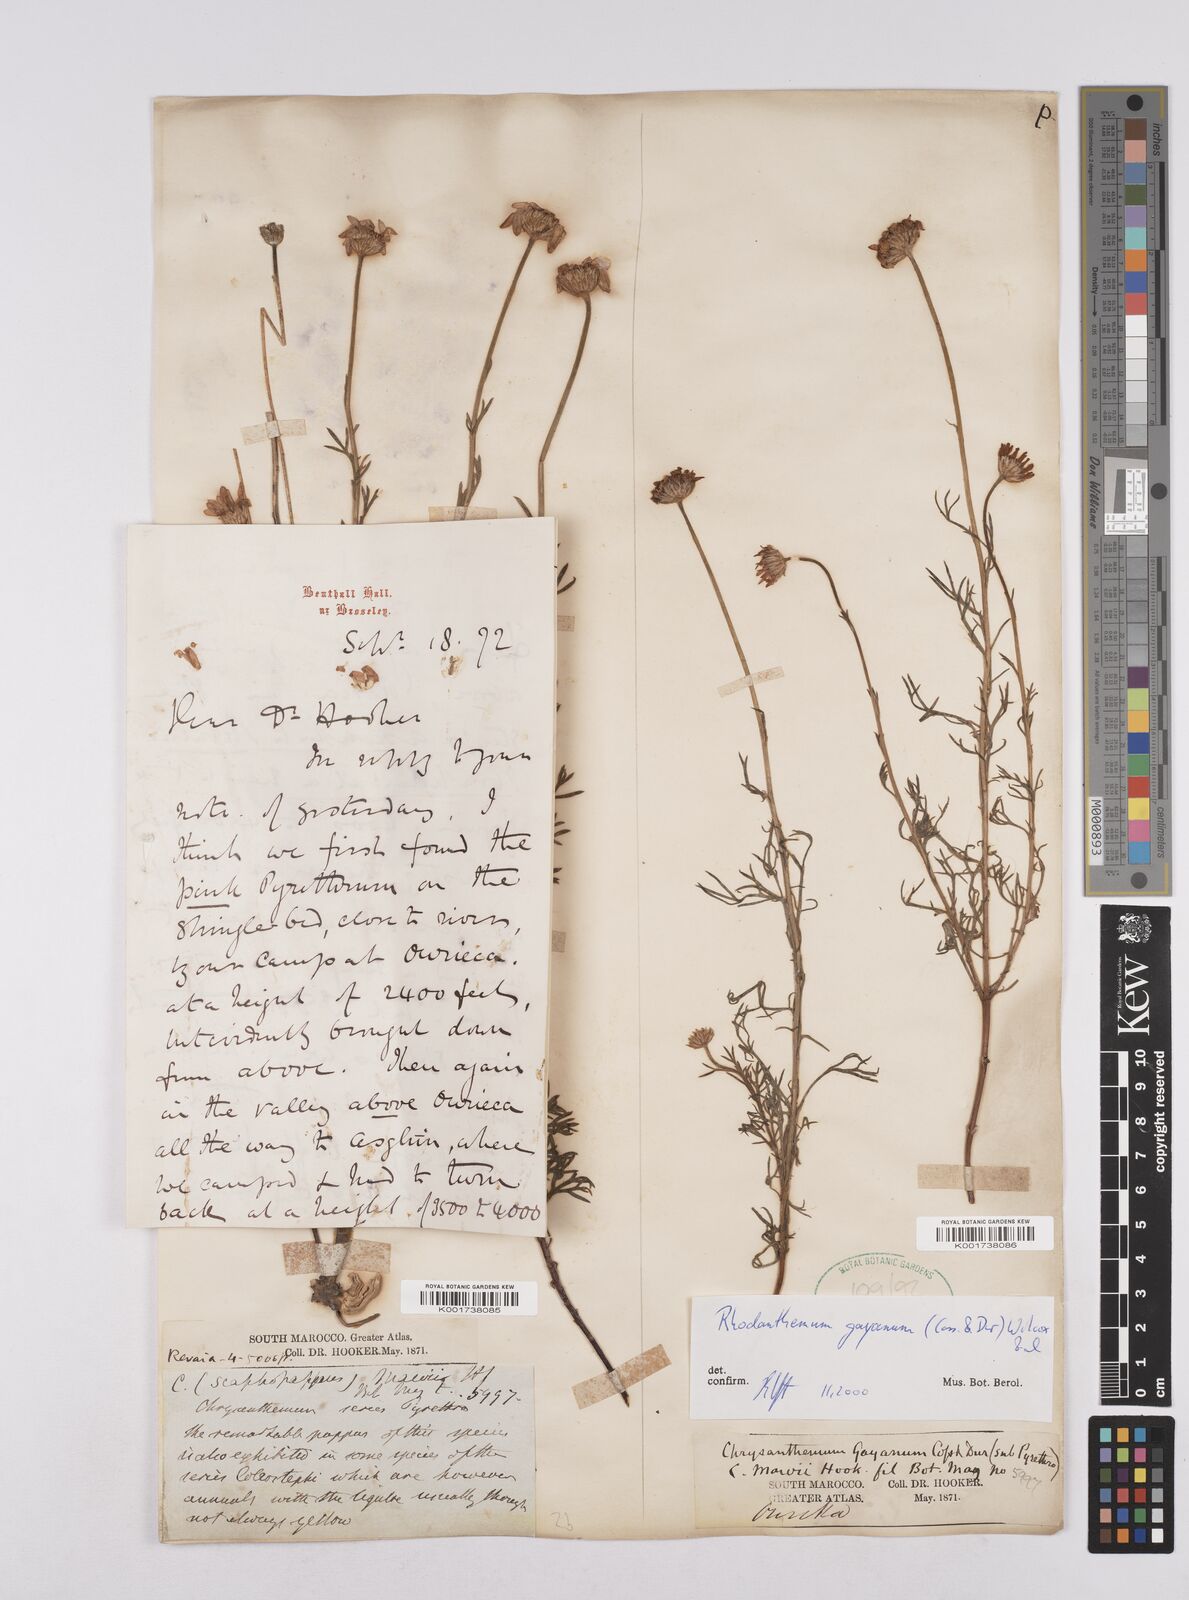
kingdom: Plantae
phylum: Tracheophyta
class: Magnoliopsida
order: Asterales
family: Asteraceae
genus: Rhodanthemum
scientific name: Rhodanthemum gayanum
